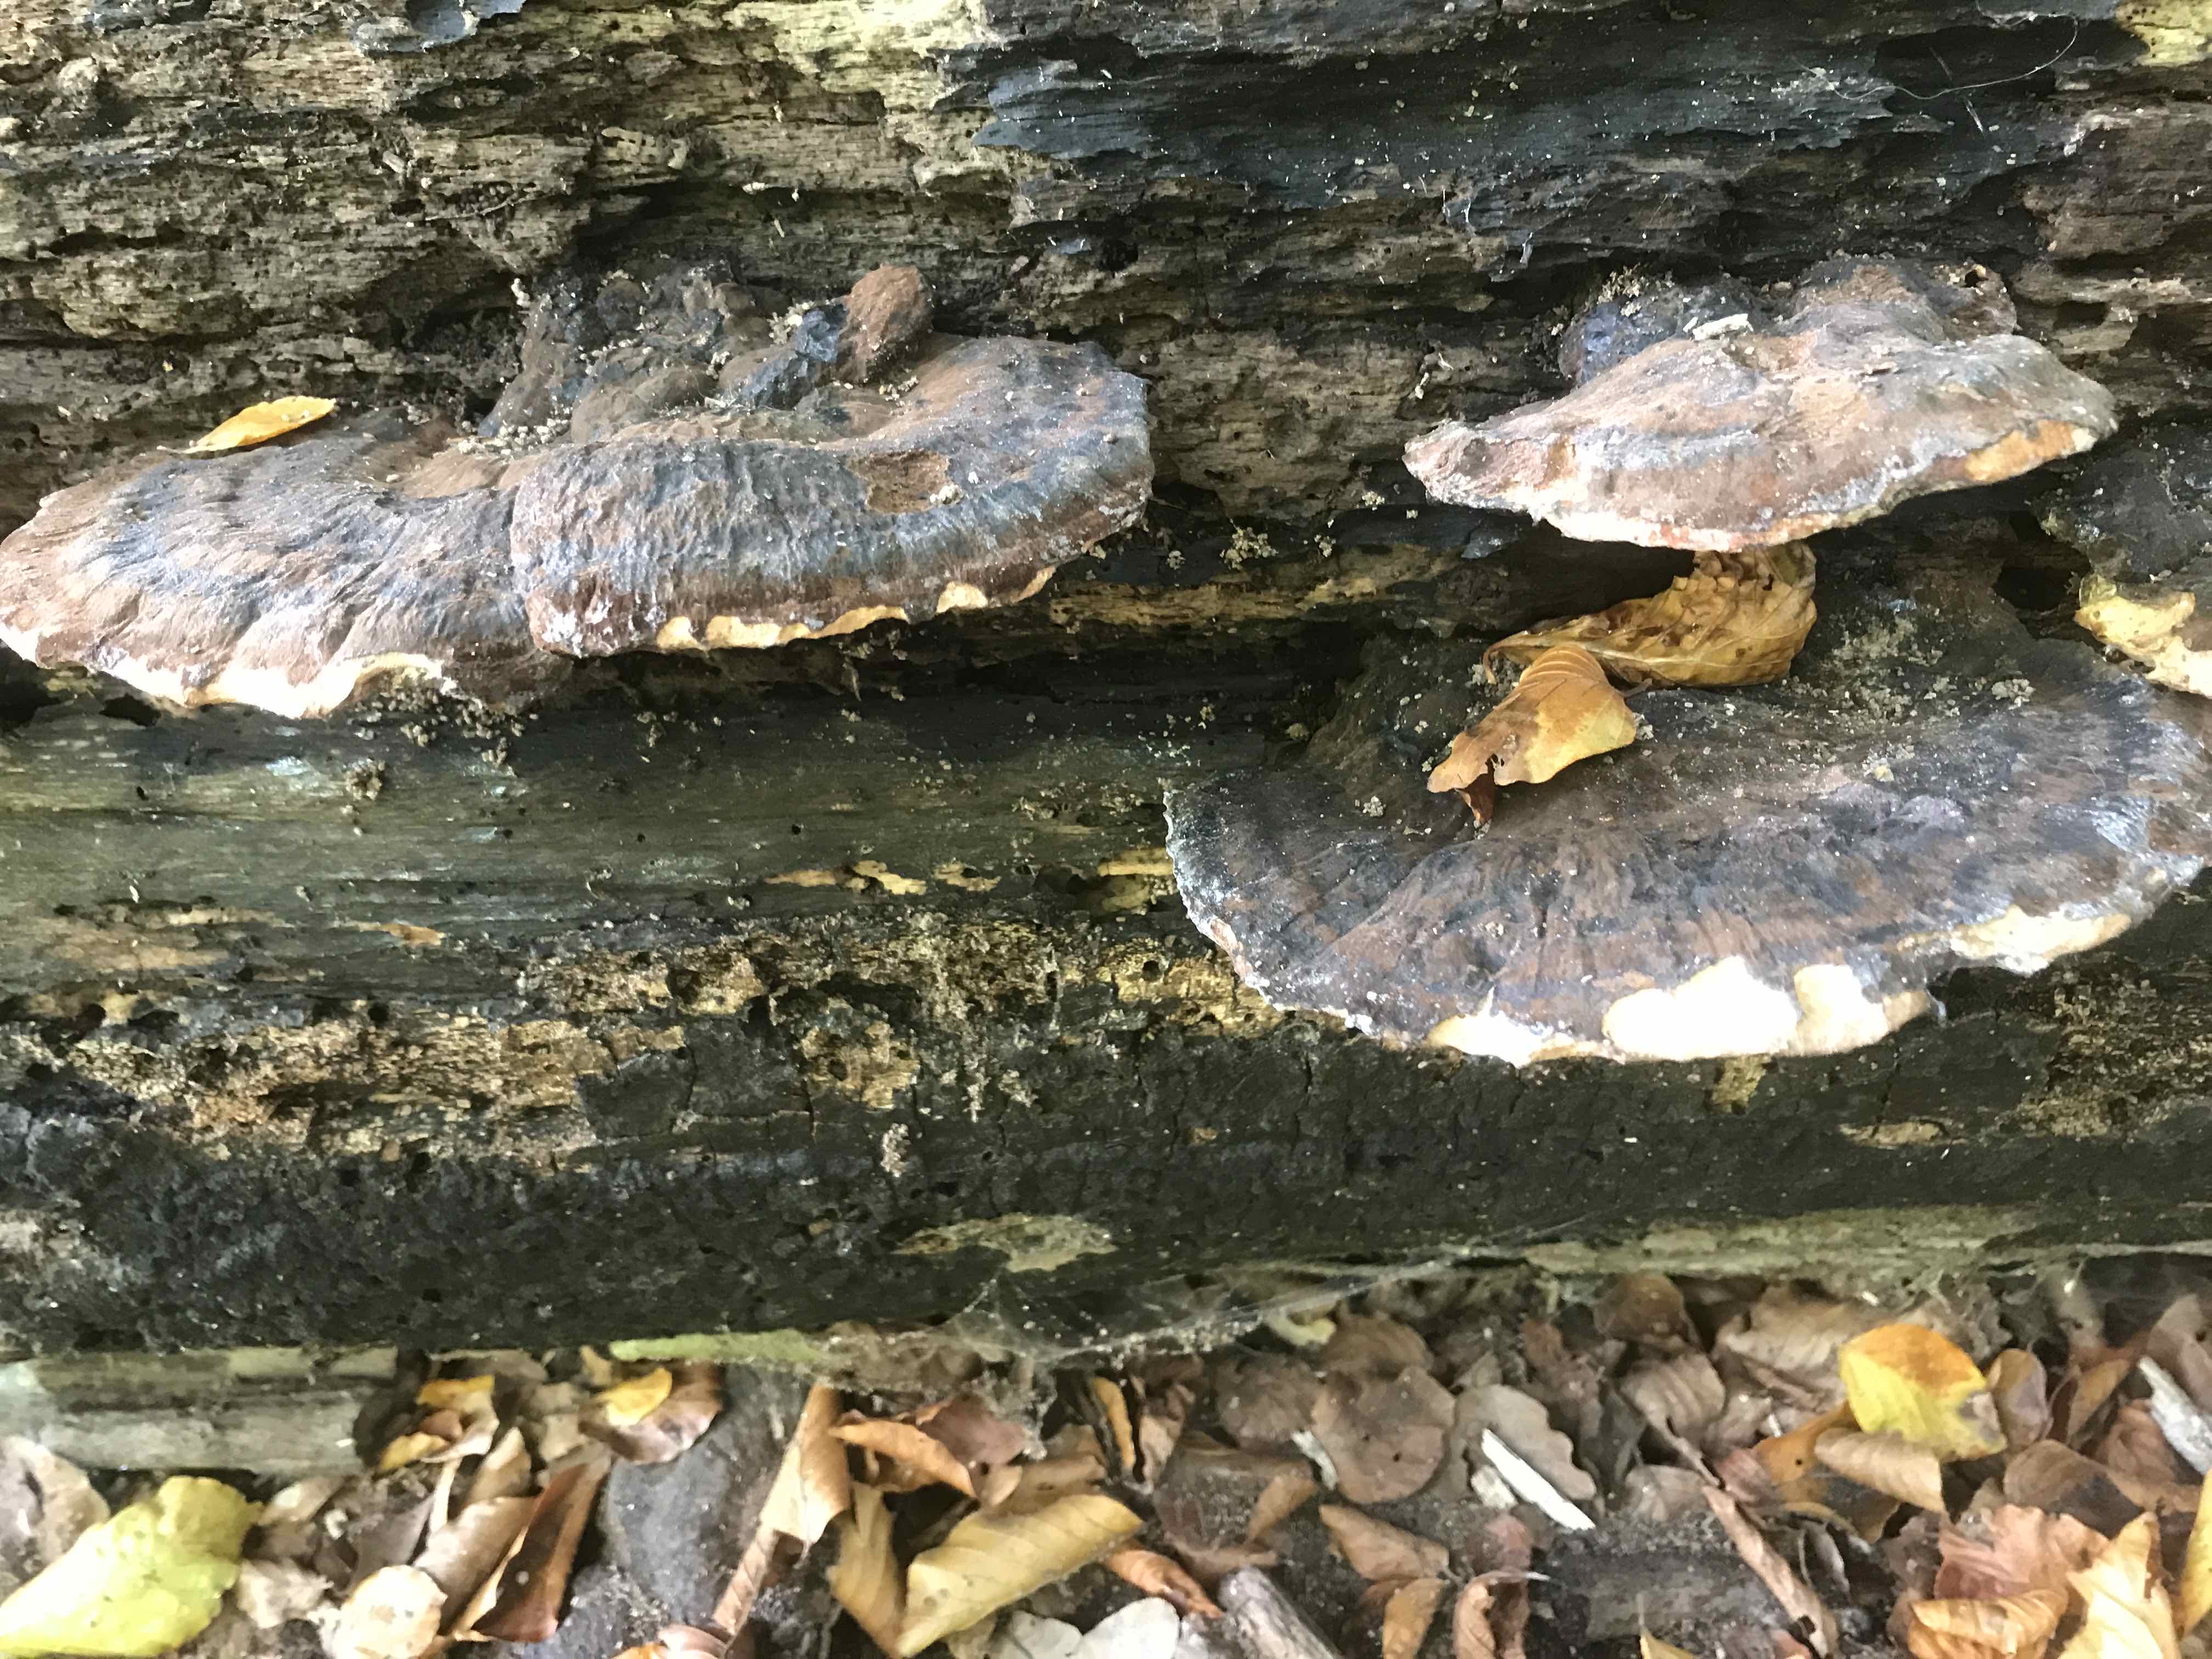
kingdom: Fungi
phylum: Basidiomycota
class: Agaricomycetes
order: Polyporales
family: Ischnodermataceae
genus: Ischnoderma
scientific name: Ischnoderma resinosum
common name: løv-tjæreporesvamp
